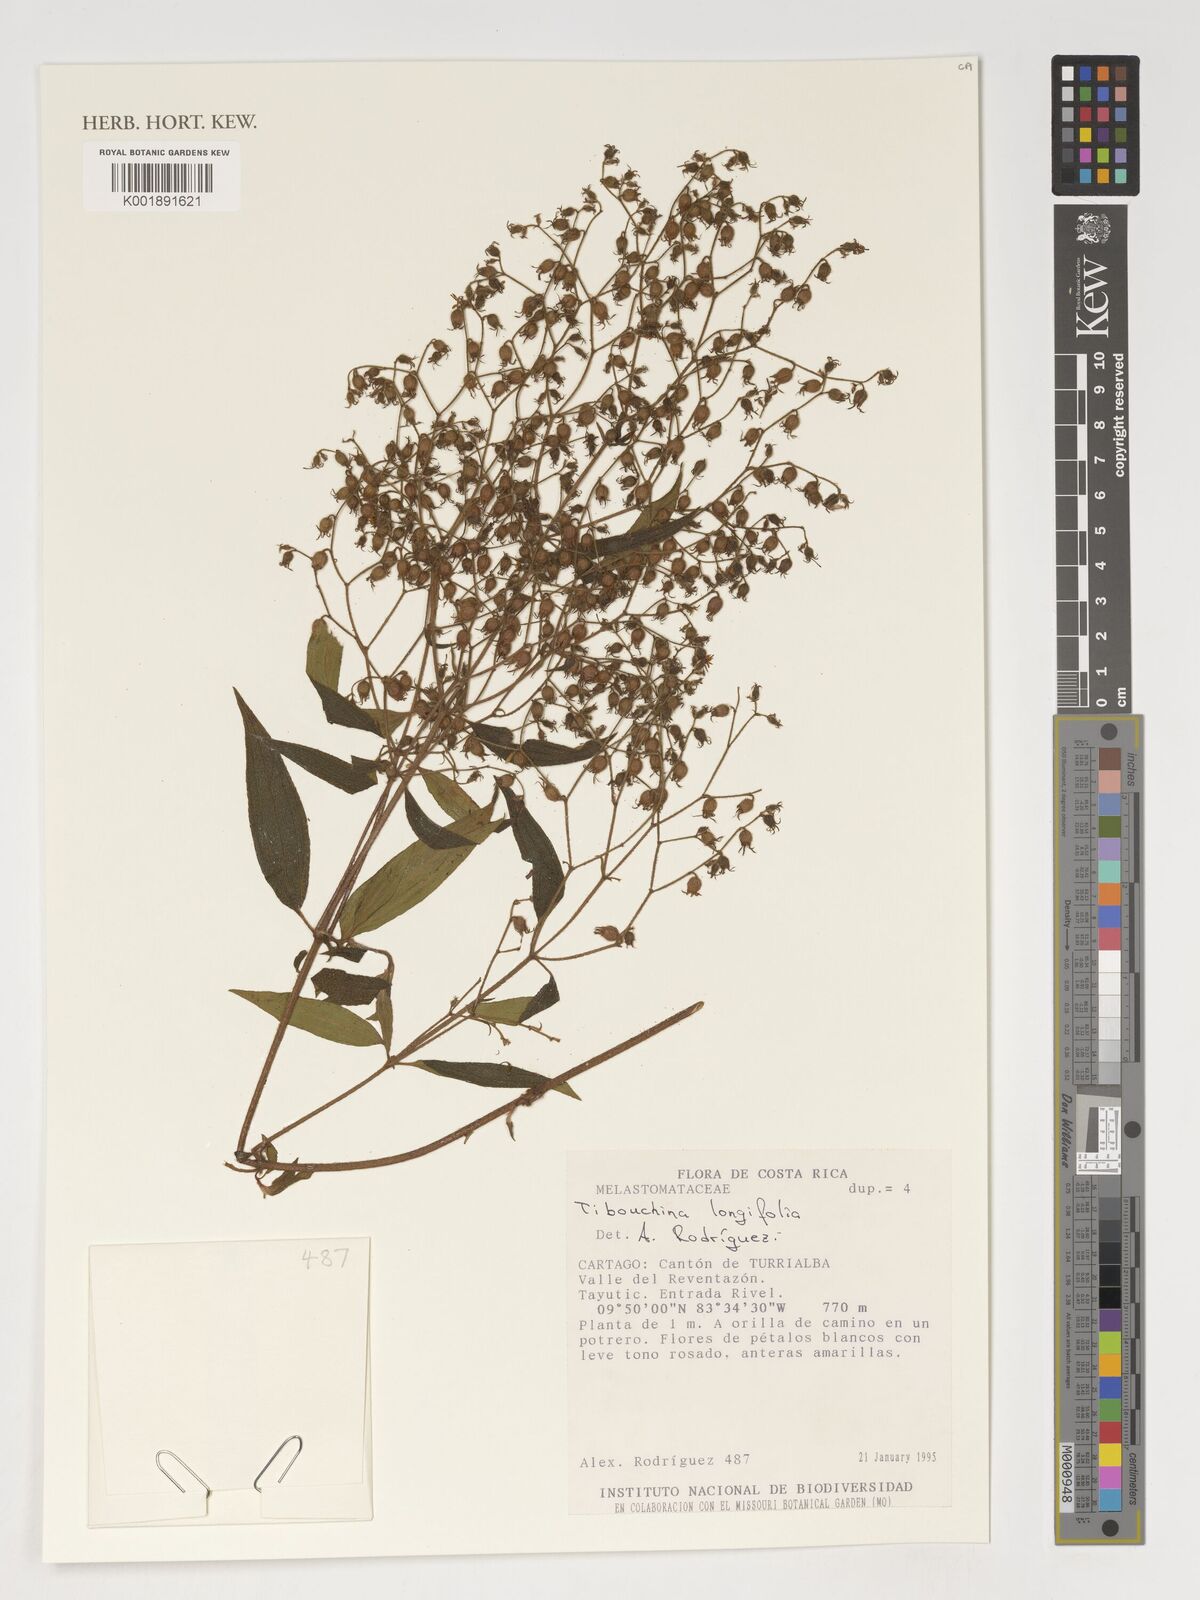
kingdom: Plantae
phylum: Tracheophyta
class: Magnoliopsida
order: Myrtales
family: Melastomataceae
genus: Chaetogastra
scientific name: Chaetogastra longifolia
